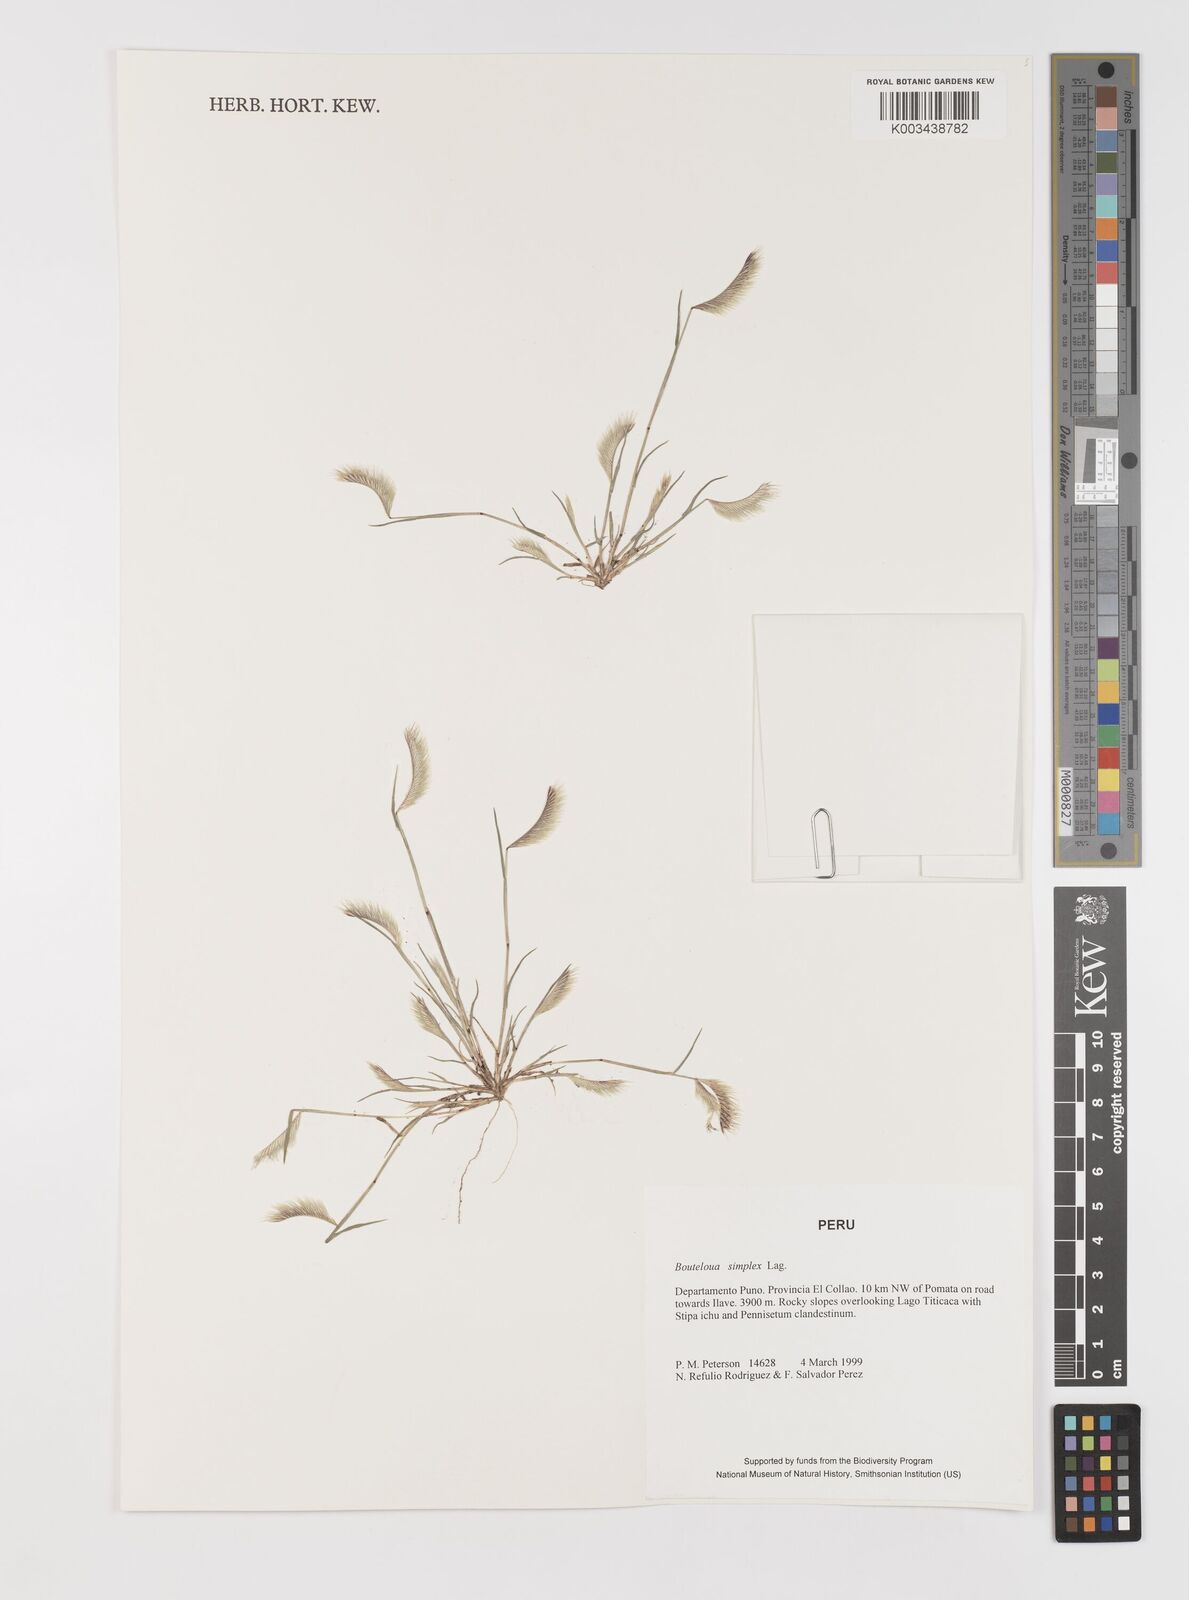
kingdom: Plantae
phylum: Tracheophyta
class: Liliopsida
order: Poales
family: Poaceae
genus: Bouteloua
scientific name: Bouteloua simplex
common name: Mat grama
